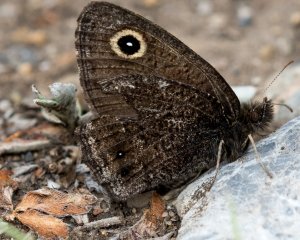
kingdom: Animalia
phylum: Arthropoda
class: Insecta
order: Lepidoptera
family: Nymphalidae
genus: Cercyonis
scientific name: Cercyonis oetus
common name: Small Wood-Nymph
